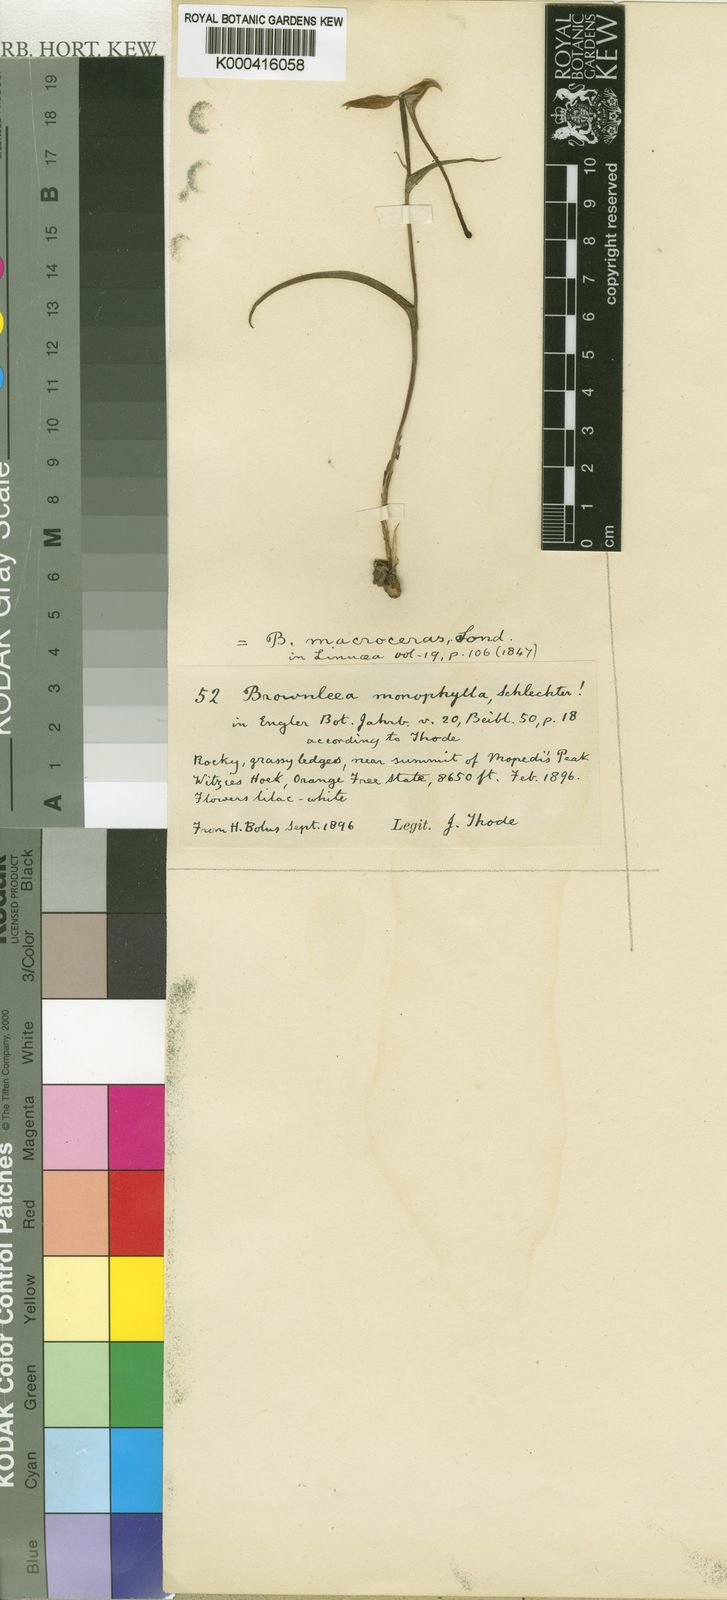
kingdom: Plantae
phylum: Tracheophyta
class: Liliopsida
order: Asparagales
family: Orchidaceae
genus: Brownleea
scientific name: Brownleea macroceras
